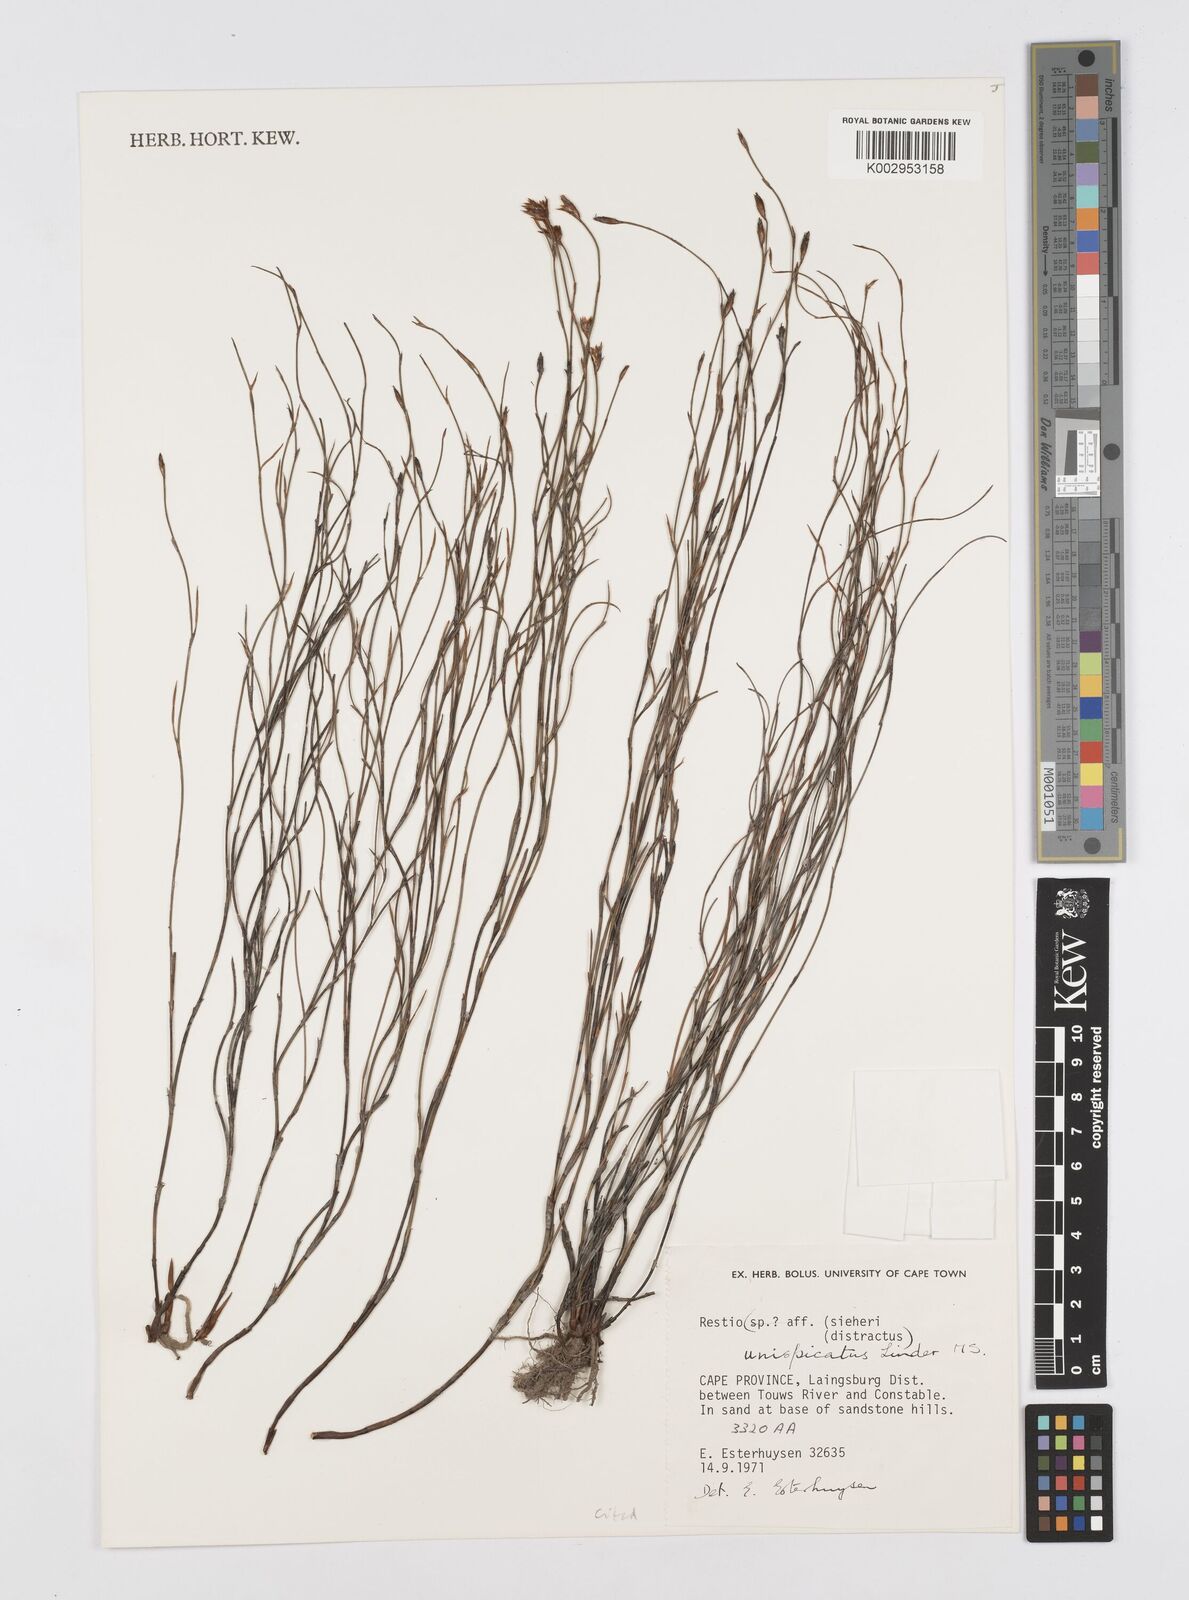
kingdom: Plantae
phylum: Tracheophyta
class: Liliopsida
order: Poales
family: Restionaceae
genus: Restio
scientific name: Restio unispicatus
